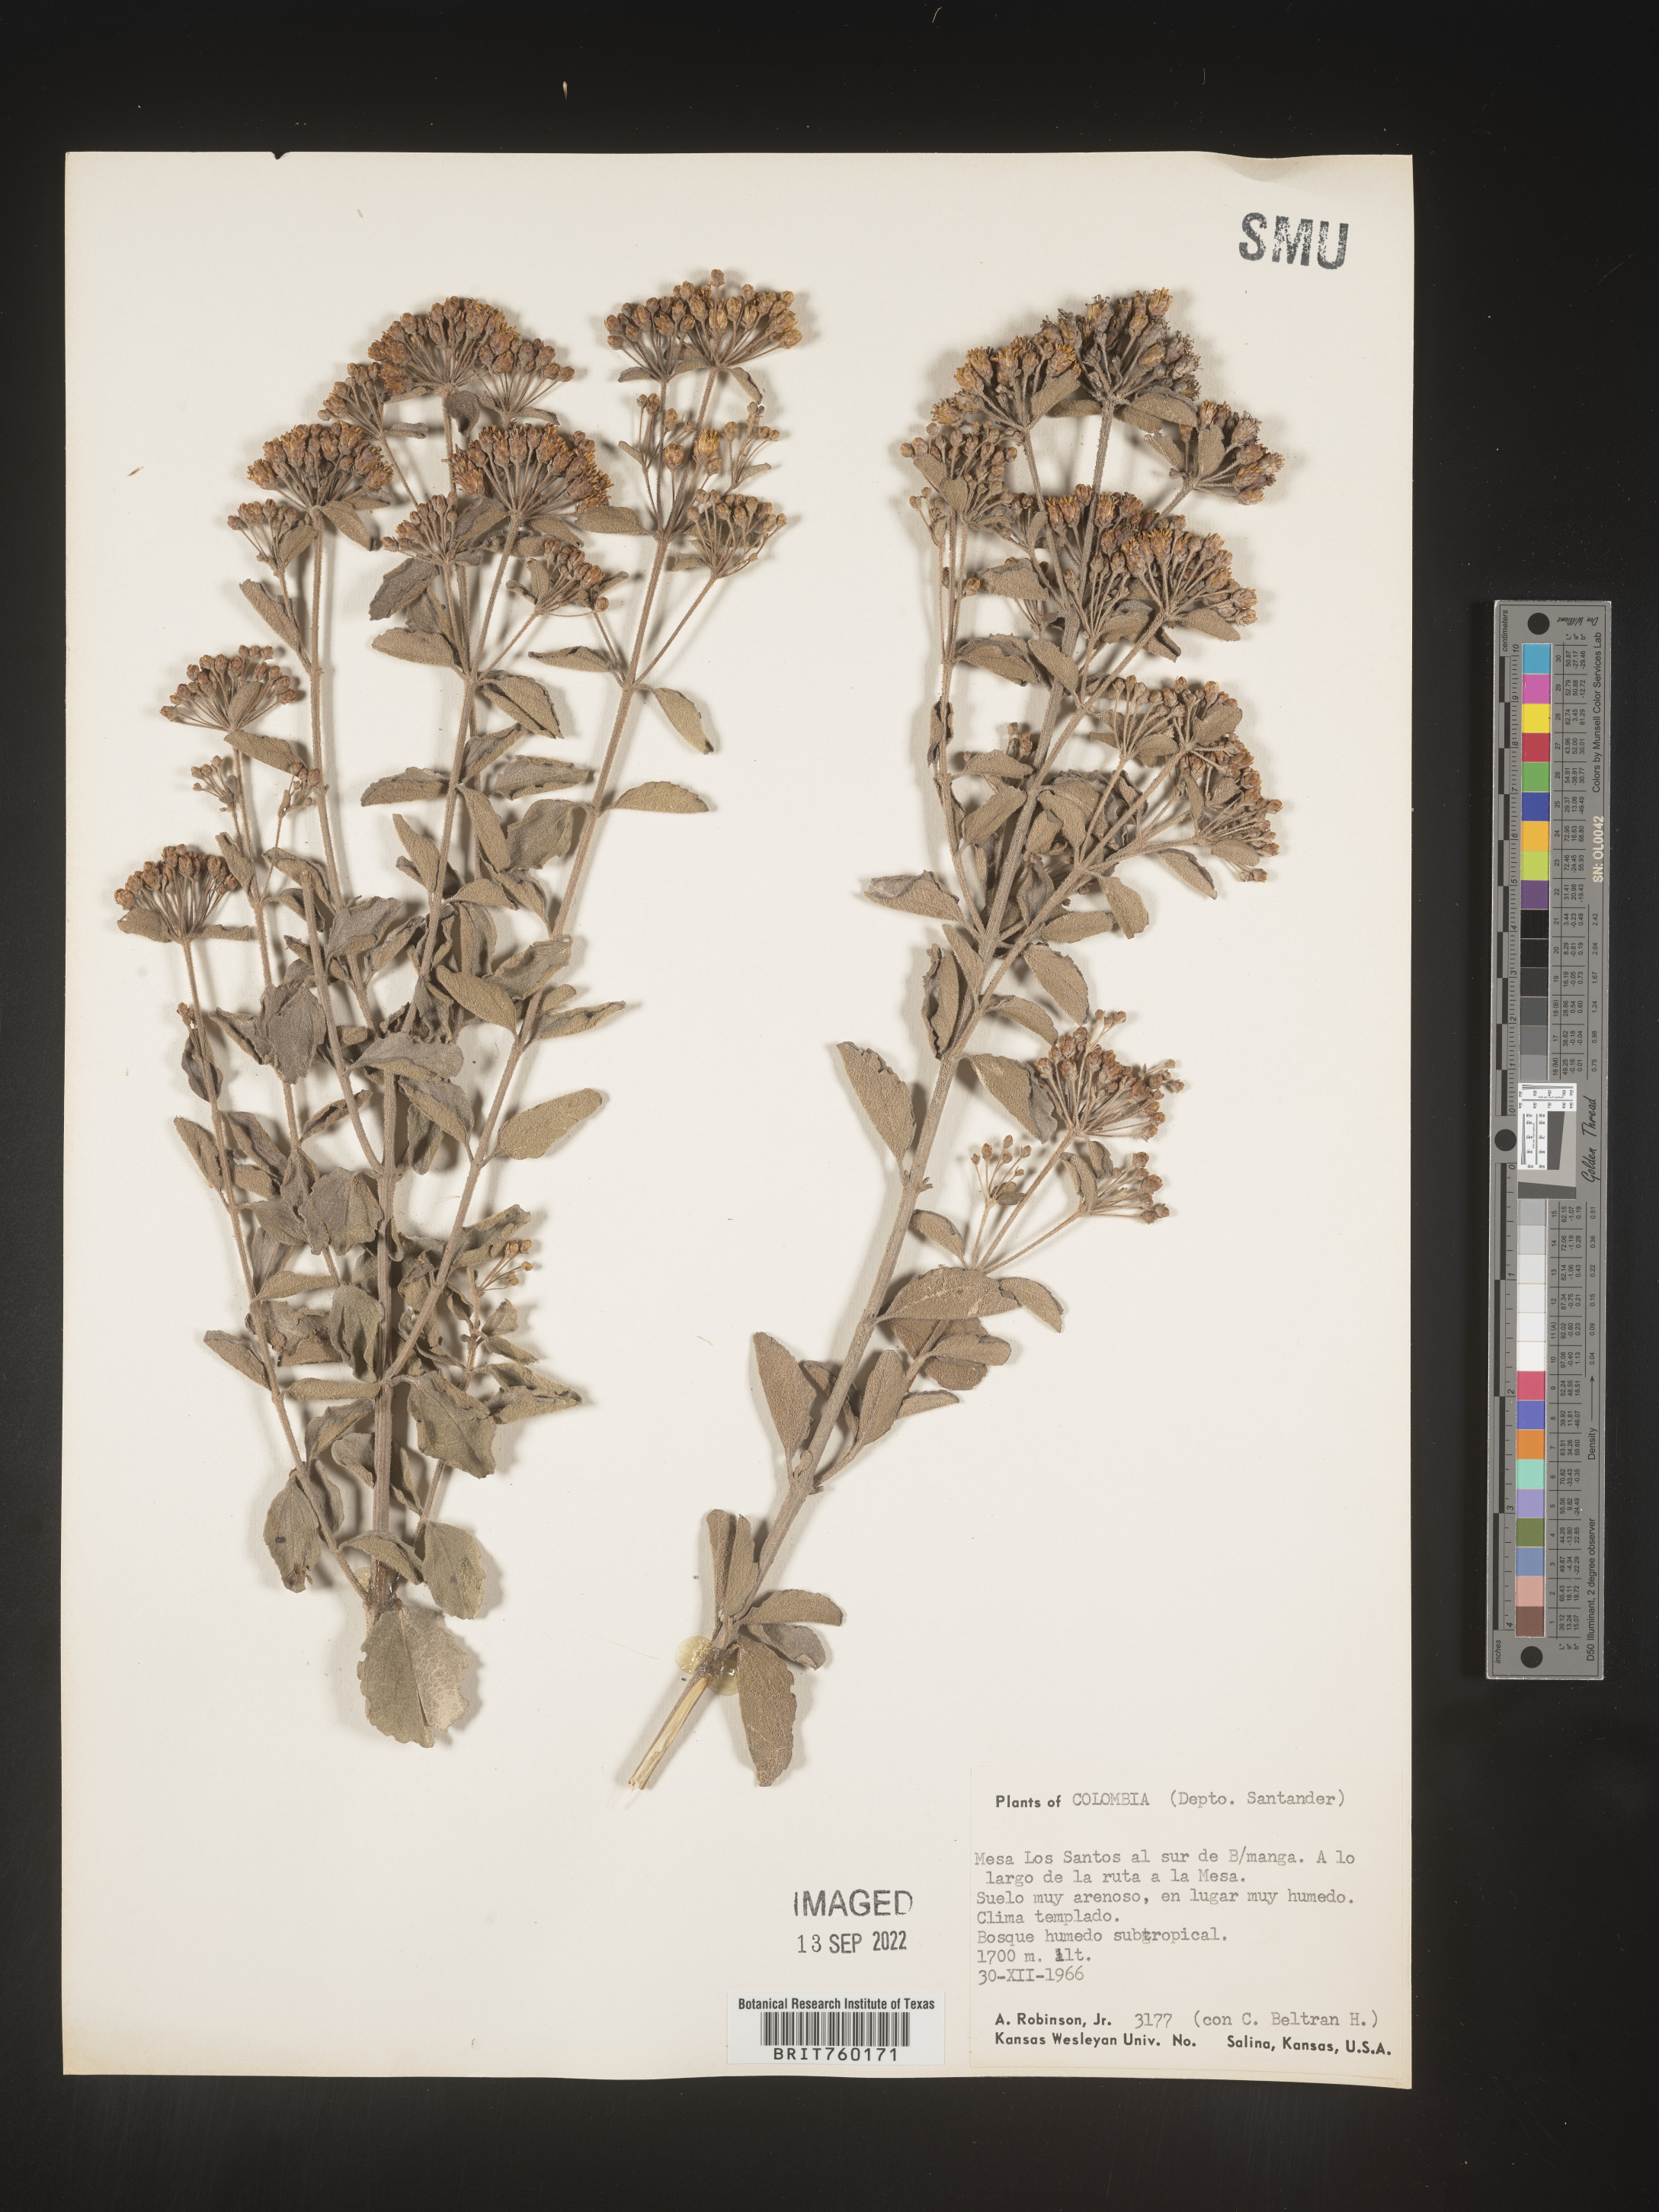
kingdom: Plantae
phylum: Tracheophyta
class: Magnoliopsida
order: Asterales
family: Asteraceae
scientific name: Asteraceae
